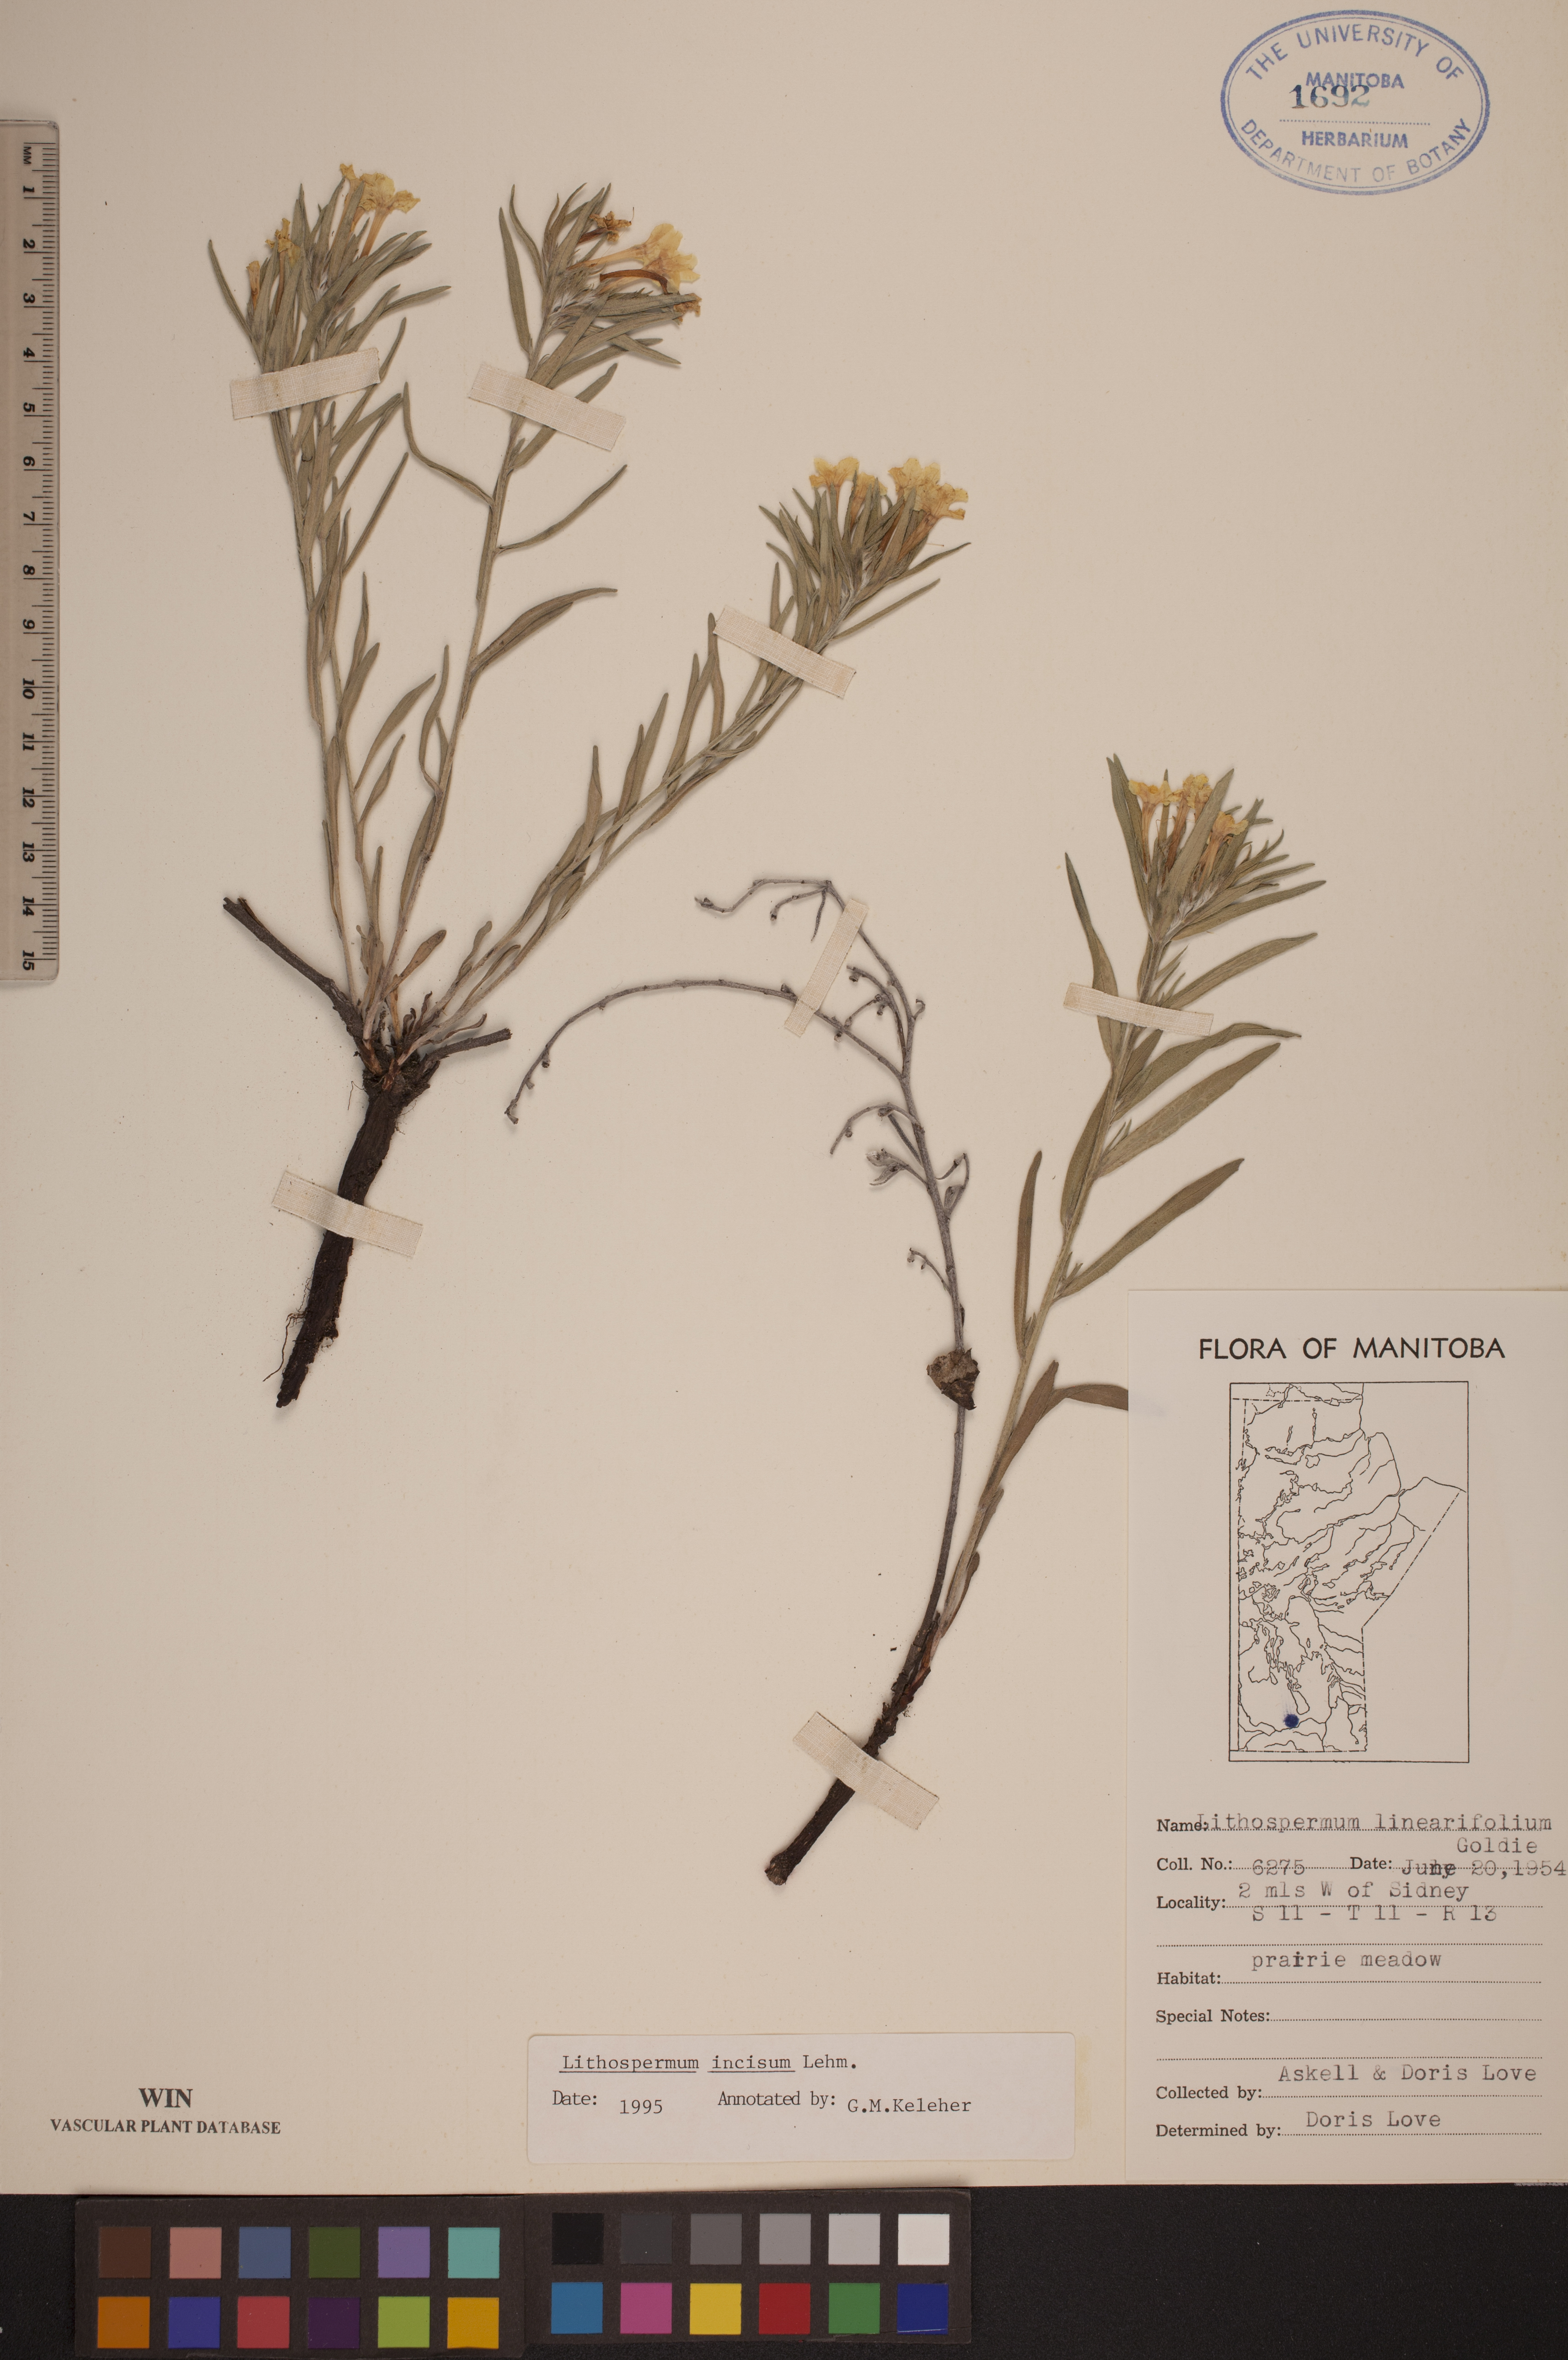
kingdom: Plantae
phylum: Tracheophyta
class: Magnoliopsida
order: Boraginales
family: Boraginaceae
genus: Lithospermum
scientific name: Lithospermum incisum
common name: Fringed gromwell
